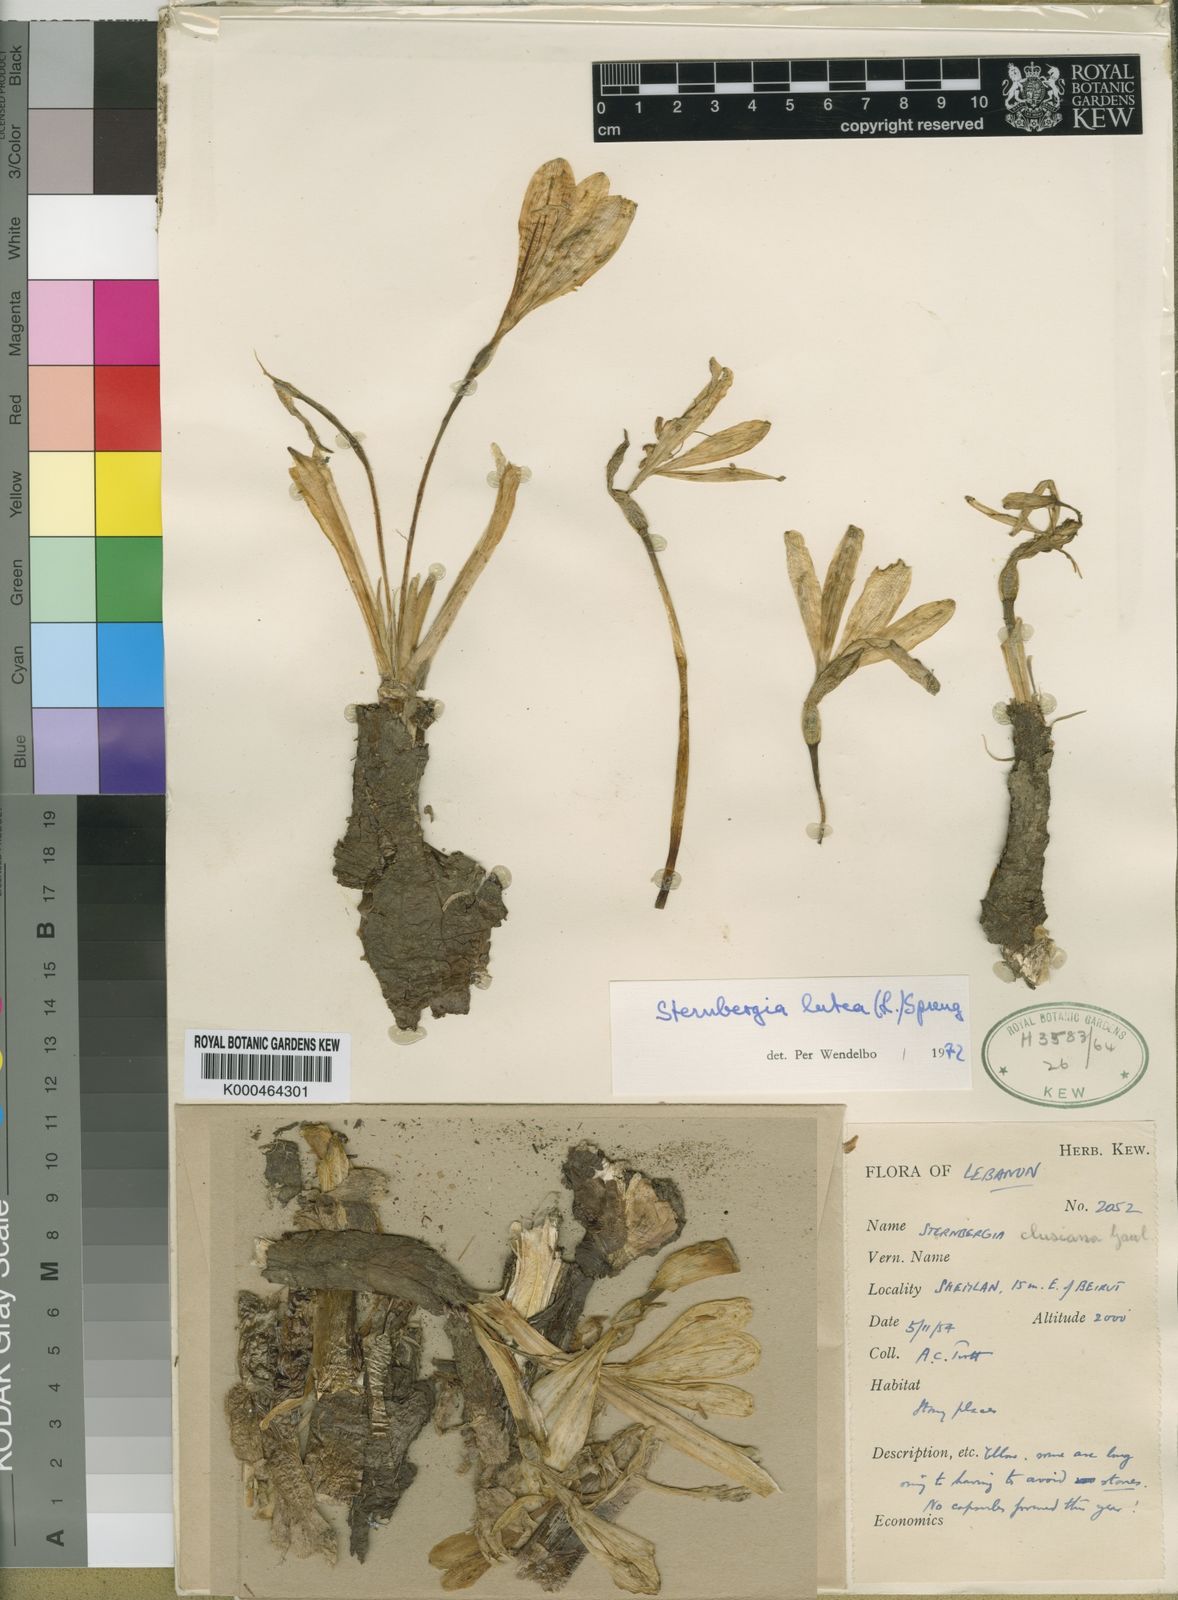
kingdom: Plantae
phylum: Tracheophyta
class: Liliopsida
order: Asparagales
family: Amaryllidaceae
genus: Sternbergia
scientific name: Sternbergia lutea
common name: Winter daffodil
